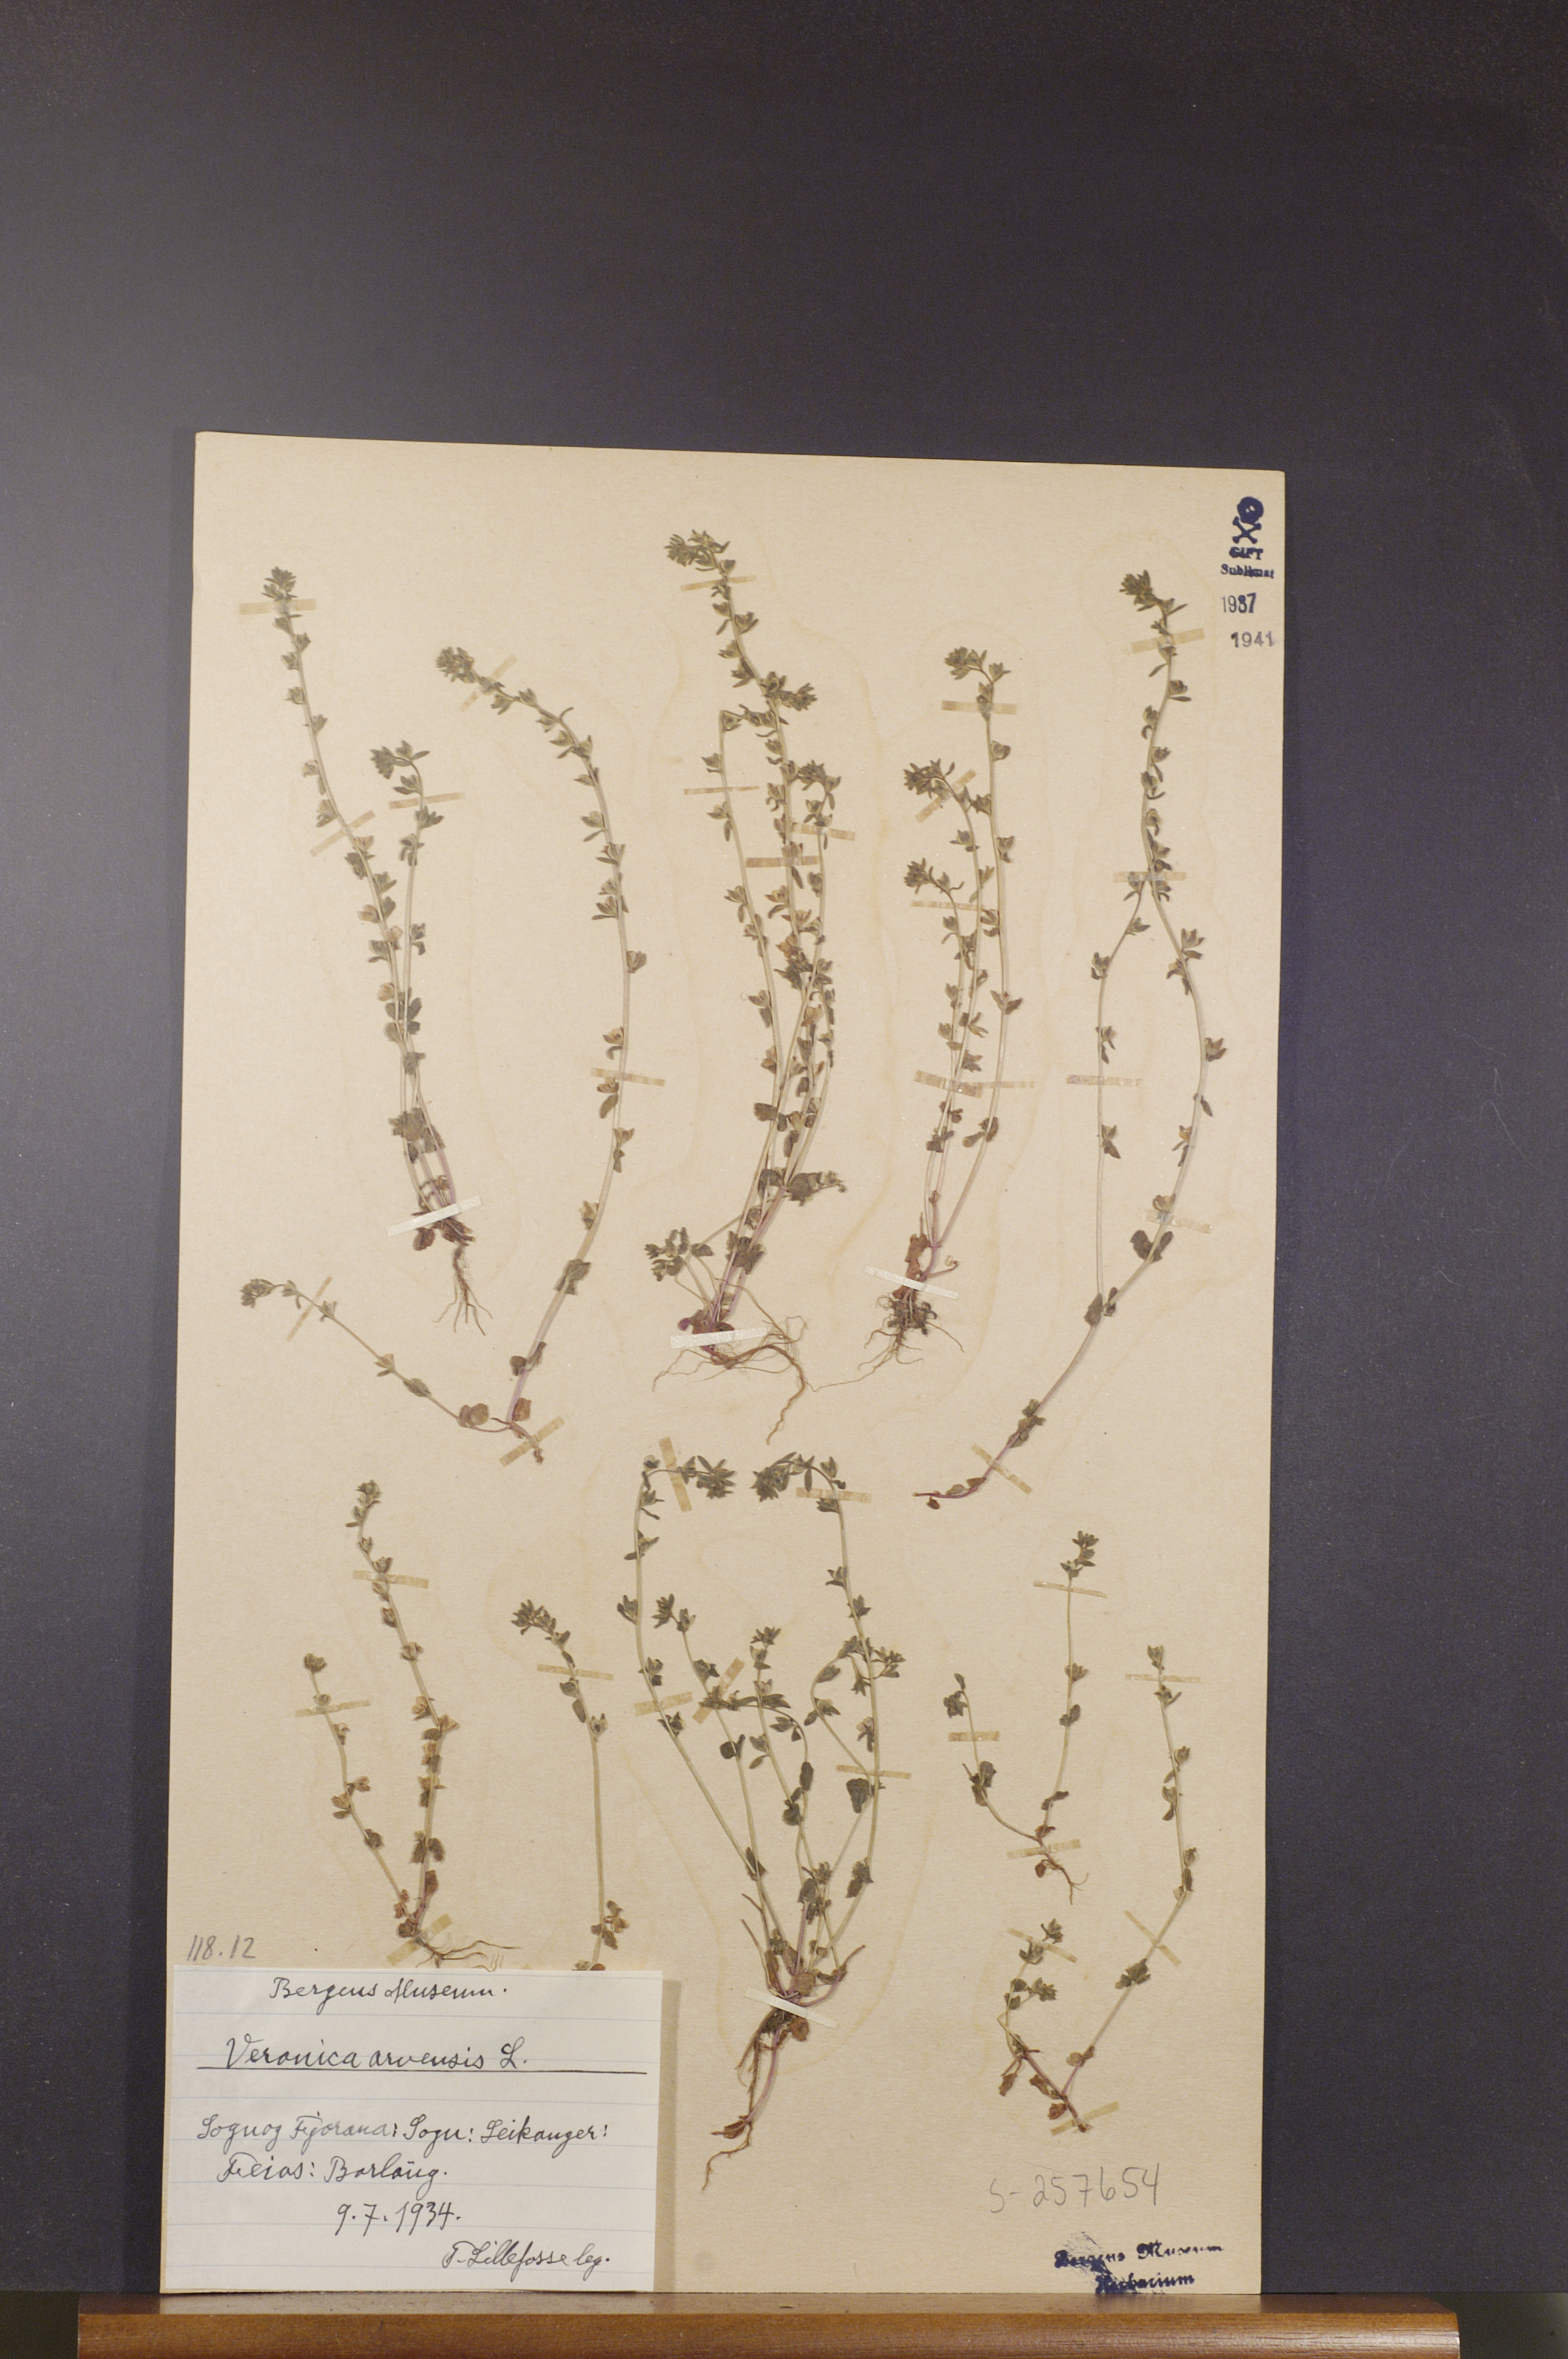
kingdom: Plantae
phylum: Tracheophyta
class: Magnoliopsida
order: Lamiales
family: Plantaginaceae
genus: Veronica
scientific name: Veronica arvensis
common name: Corn speedwell
